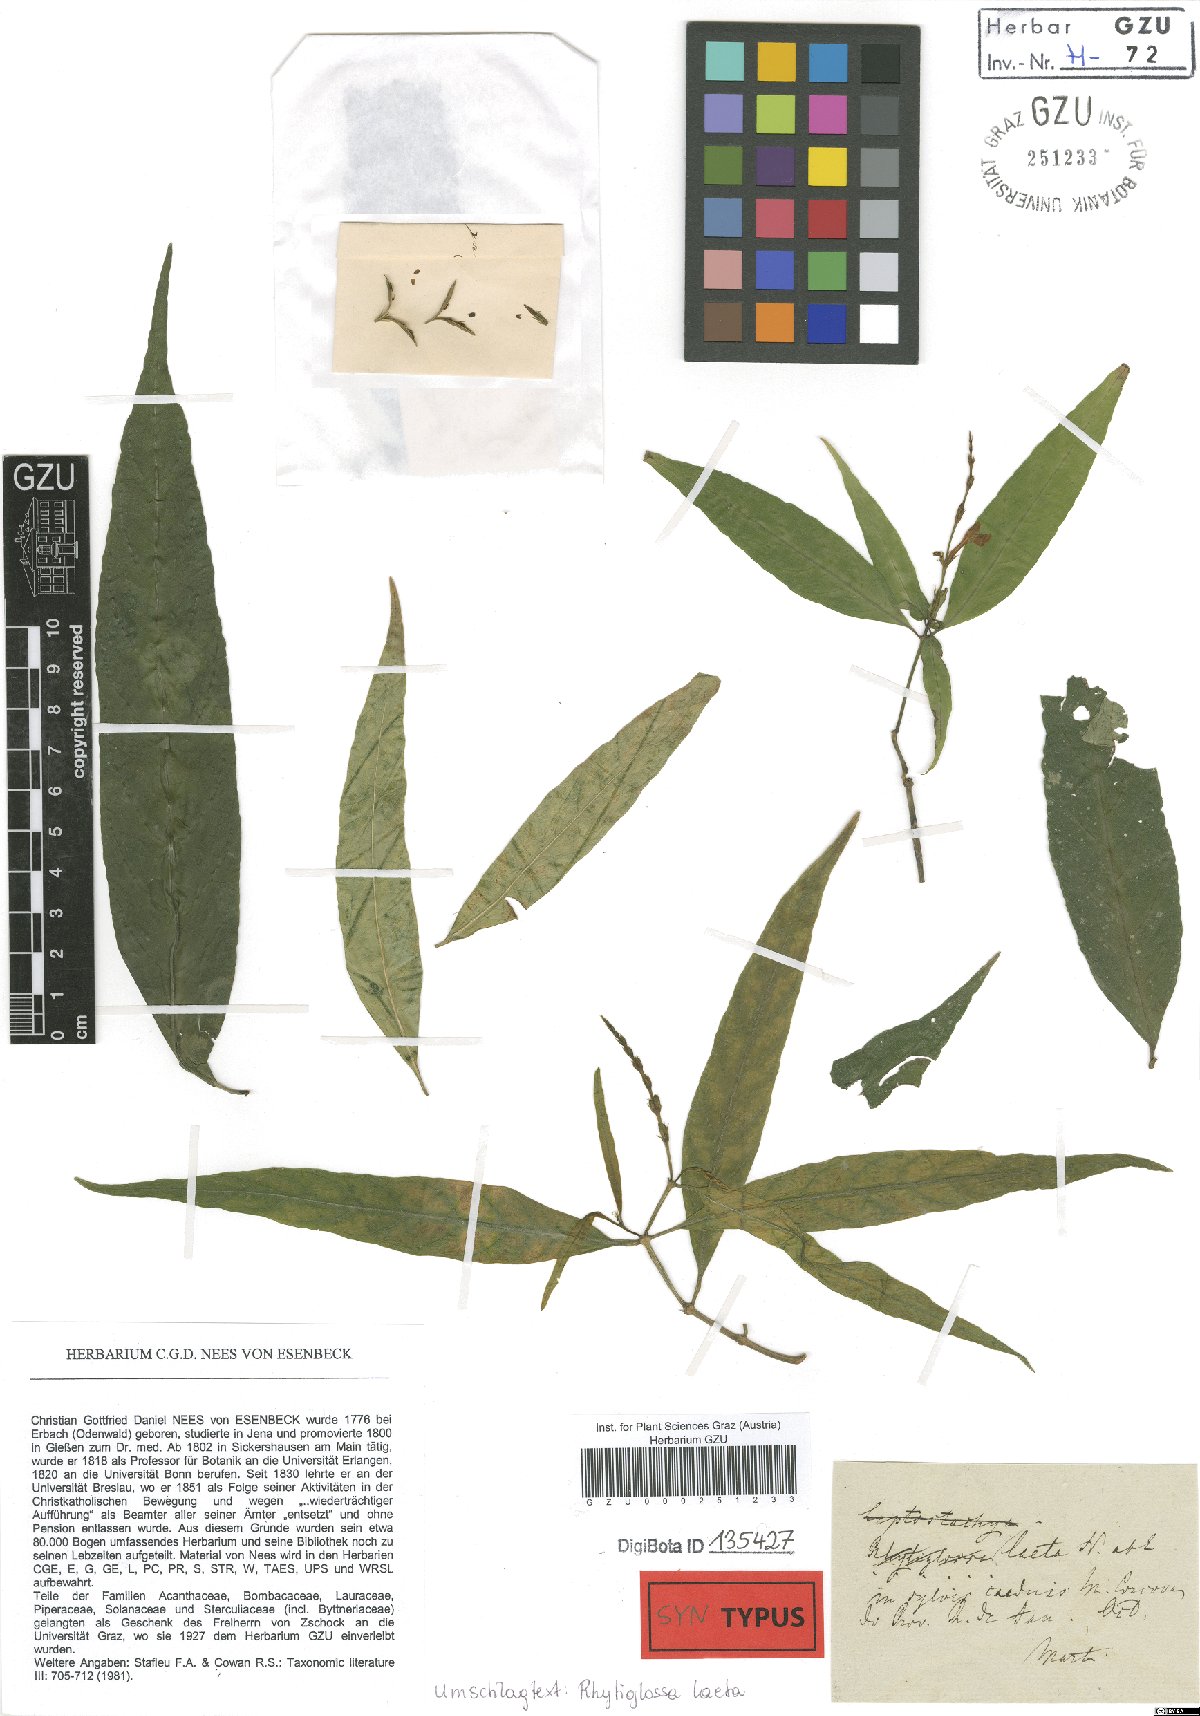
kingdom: Plantae
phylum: Tracheophyta
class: Magnoliopsida
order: Lamiales
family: Acanthaceae
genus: Dianthera
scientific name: Dianthera laeta
